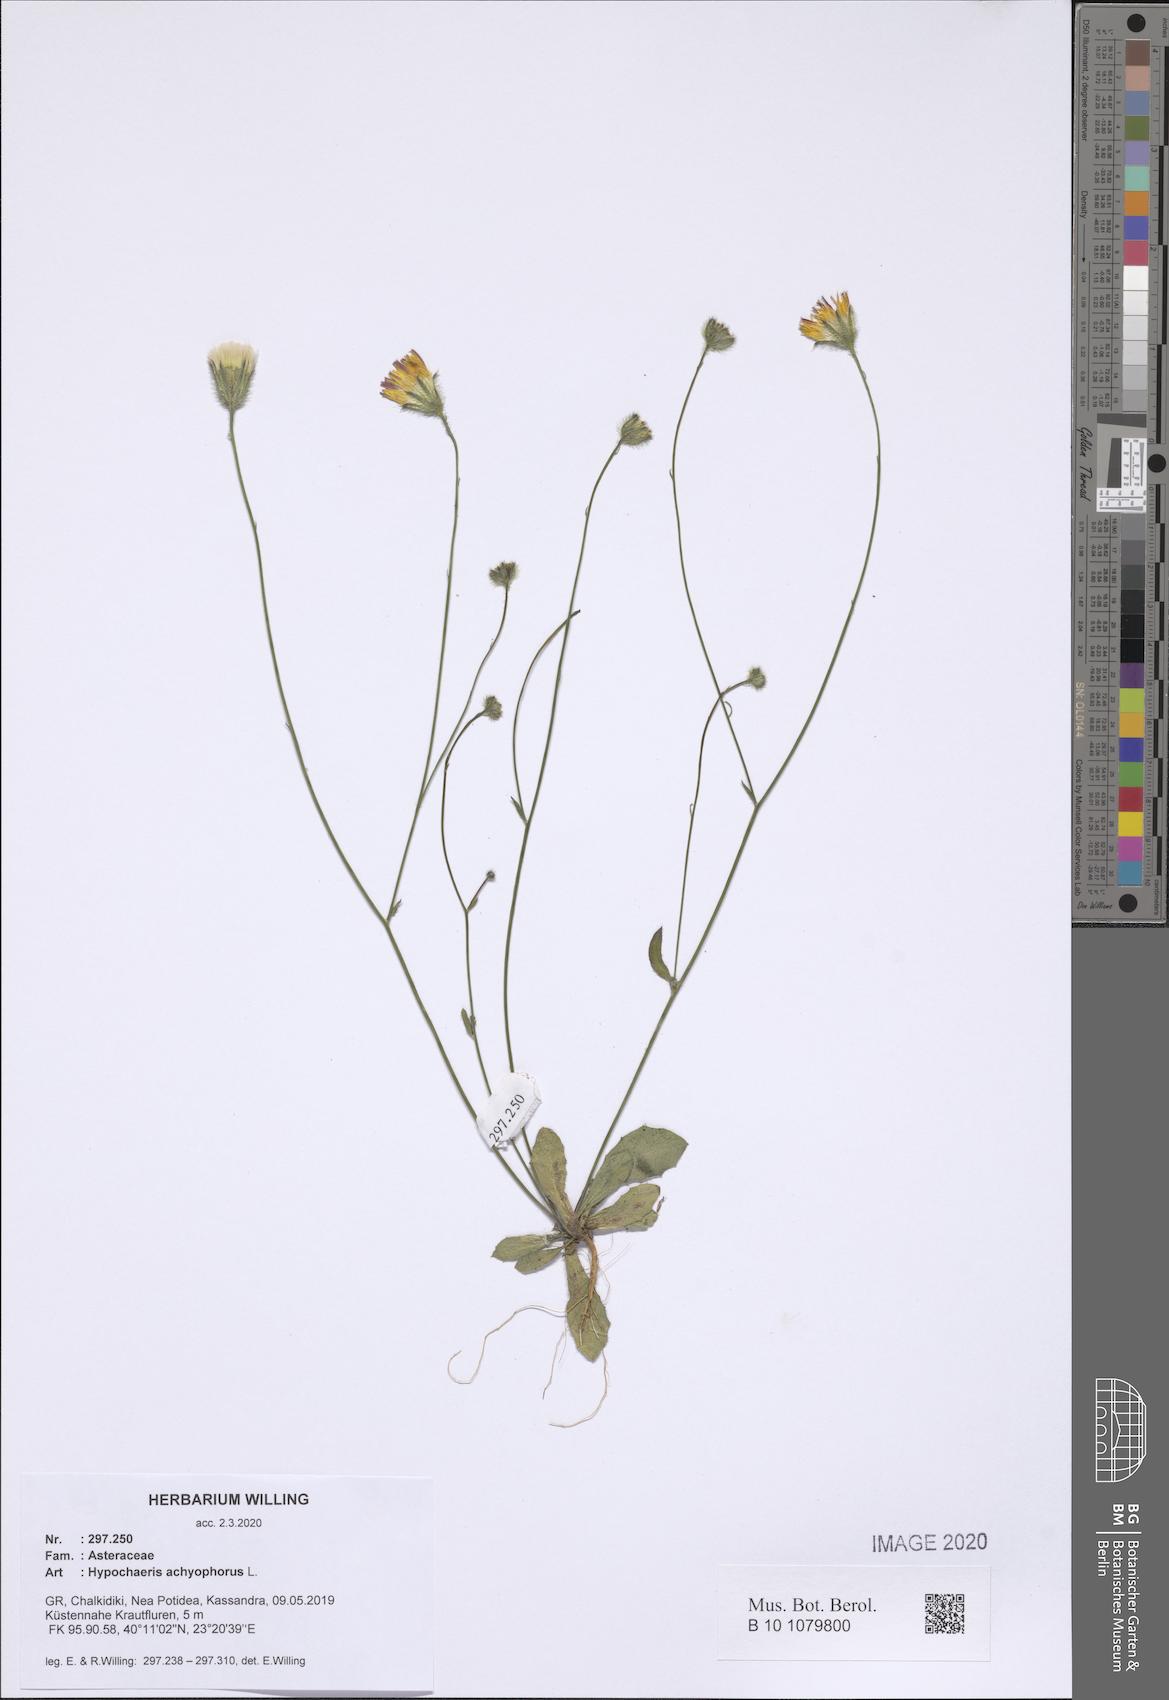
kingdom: Plantae
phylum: Tracheophyta
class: Magnoliopsida
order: Asterales
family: Asteraceae
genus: Achyrophorus
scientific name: Achyrophorus valdesii
